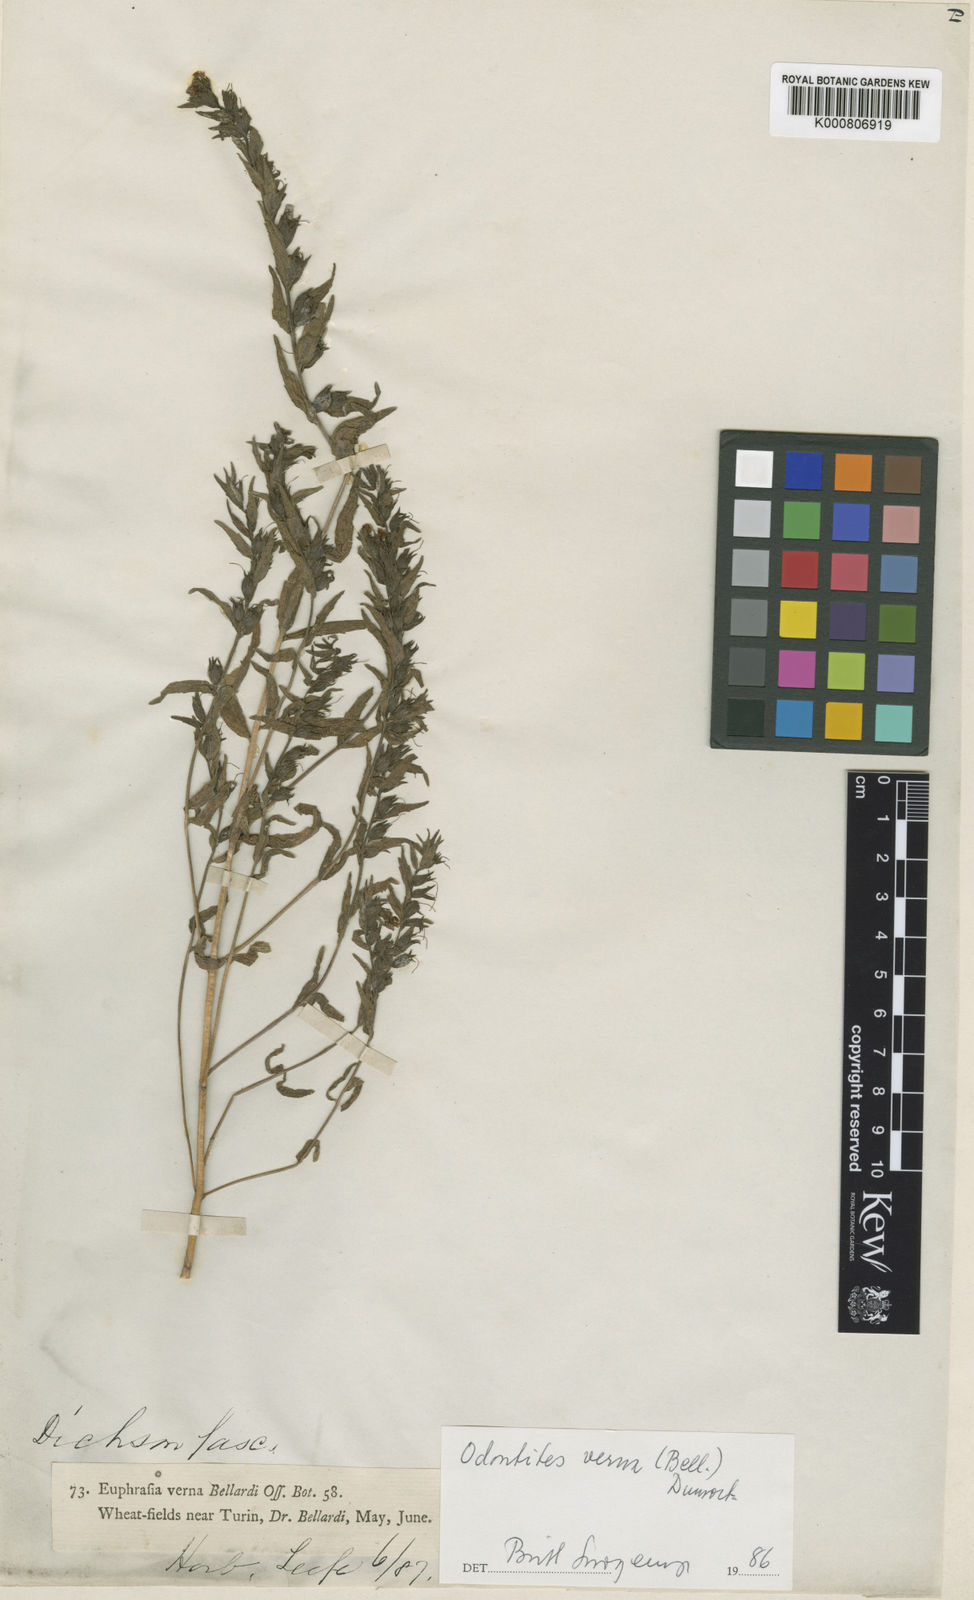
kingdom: Plantae
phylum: Tracheophyta
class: Magnoliopsida
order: Lamiales
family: Orobanchaceae
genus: Odontites
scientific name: Odontites vernus
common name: Red bartsia
